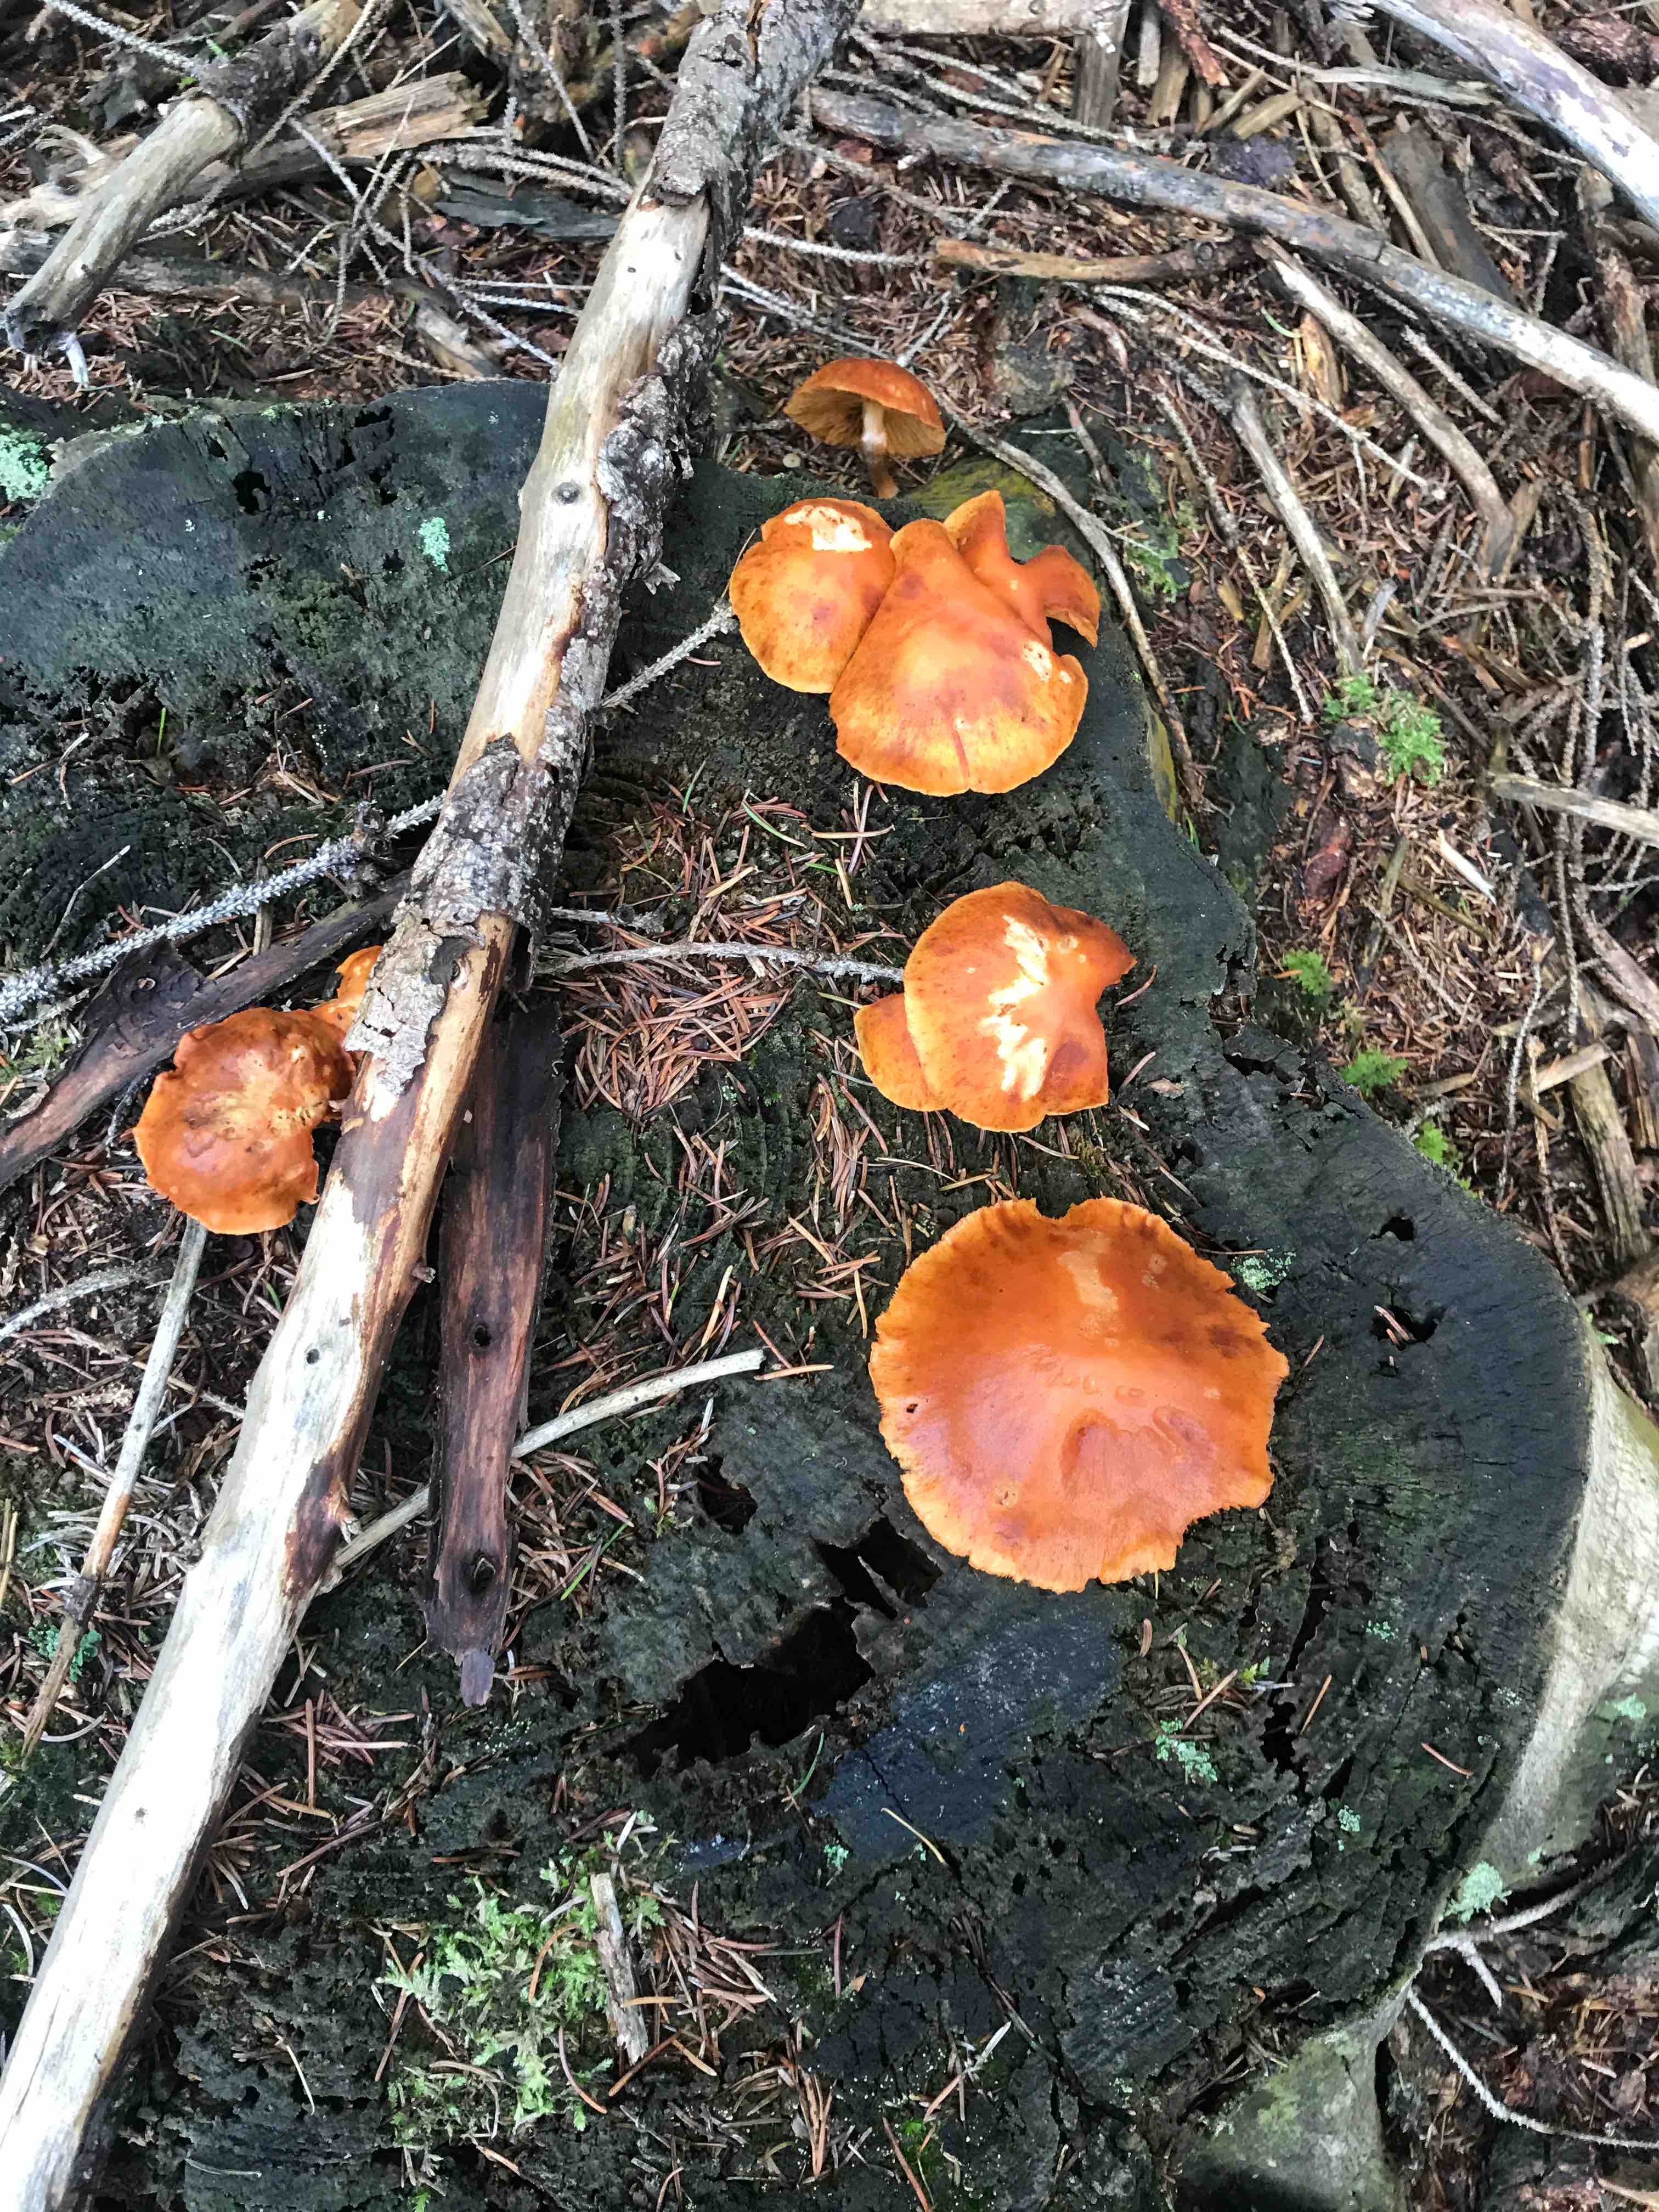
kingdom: Fungi
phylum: Basidiomycota
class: Agaricomycetes
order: Agaricales
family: Hymenogastraceae
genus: Gymnopilus
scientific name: Gymnopilus penetrans
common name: plettet flammehat
